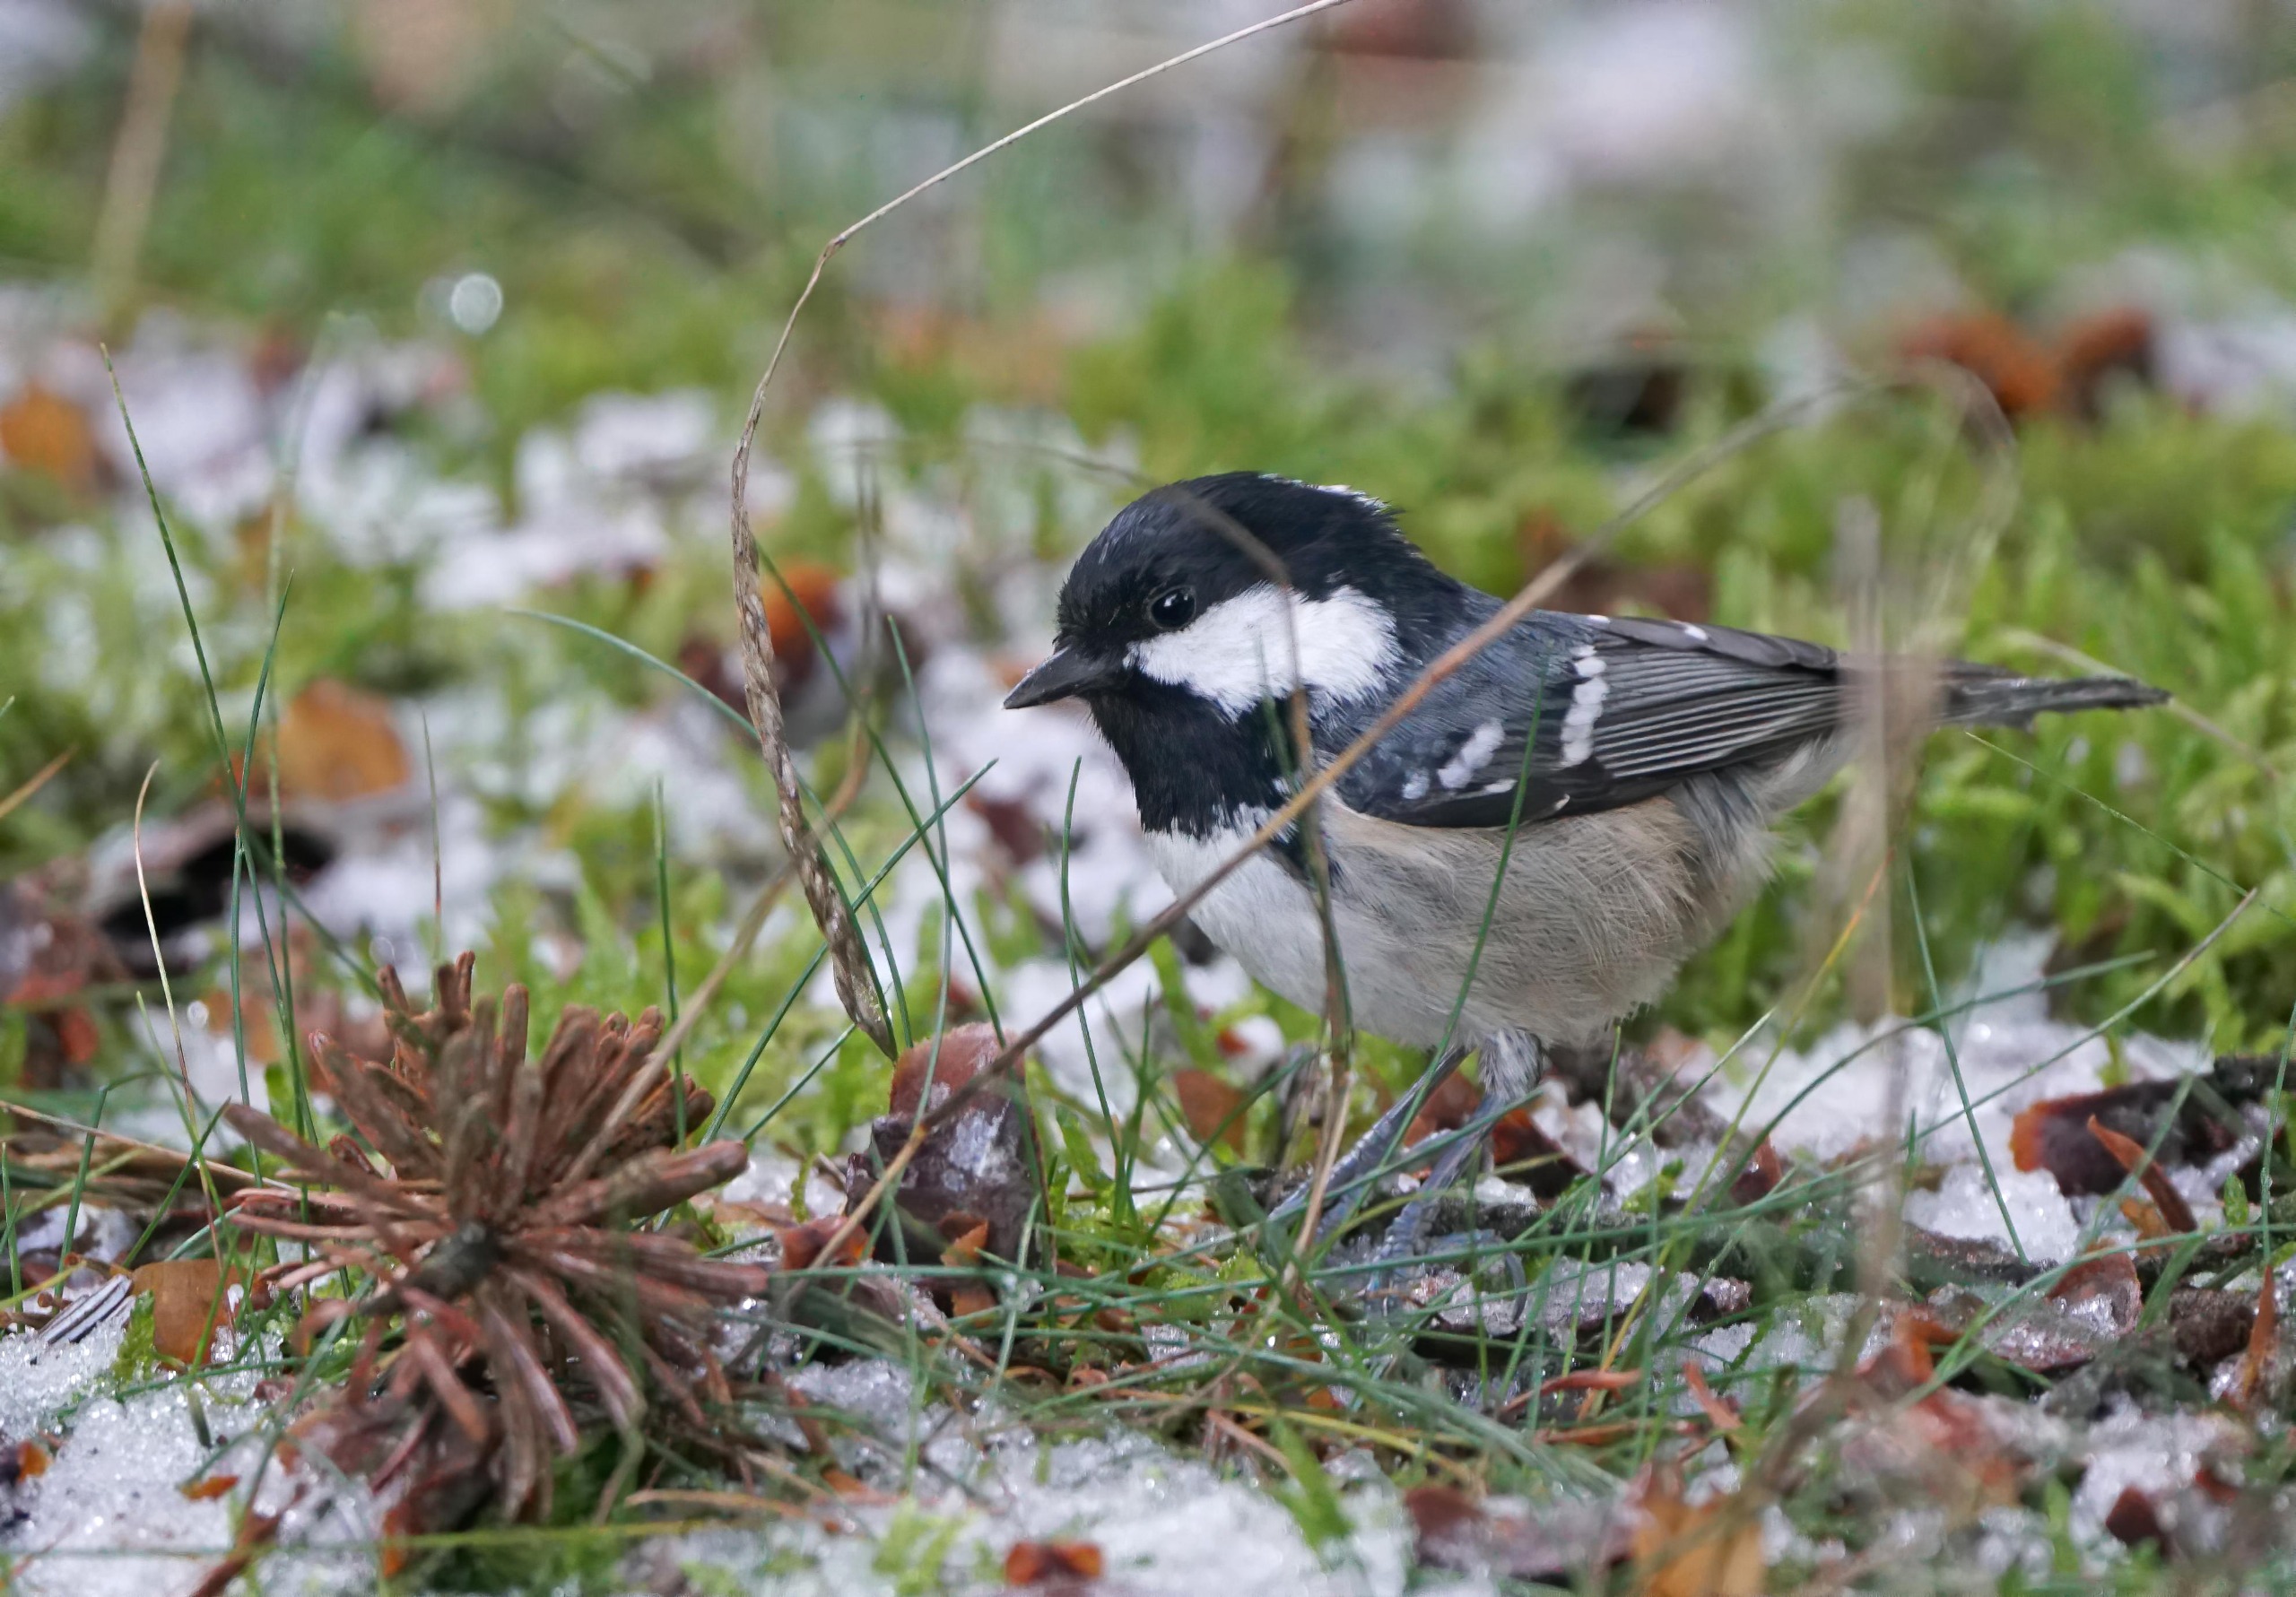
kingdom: Animalia
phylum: Chordata
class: Aves
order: Passeriformes
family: Paridae
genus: Periparus
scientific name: Periparus ater
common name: Sortmejse
